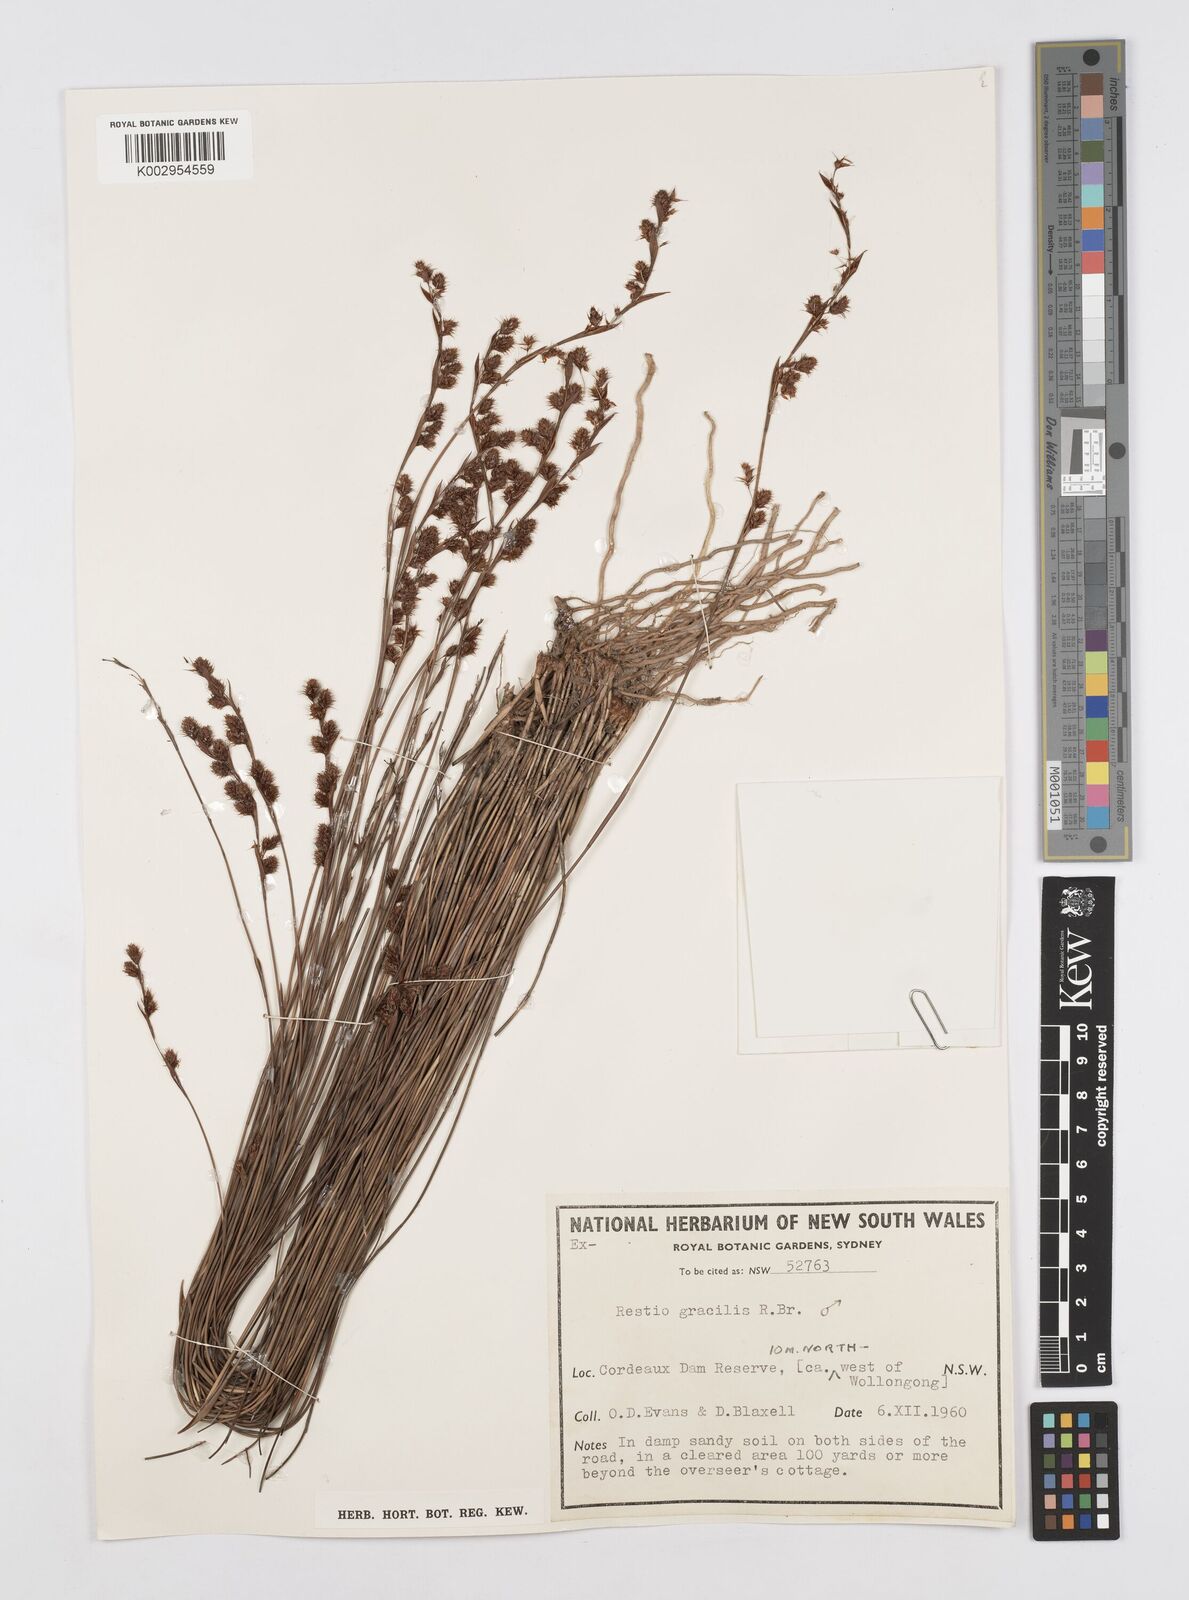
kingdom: Plantae
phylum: Tracheophyta
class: Liliopsida
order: Poales
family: Restionaceae
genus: Baloskion
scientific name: Baloskion gracile
